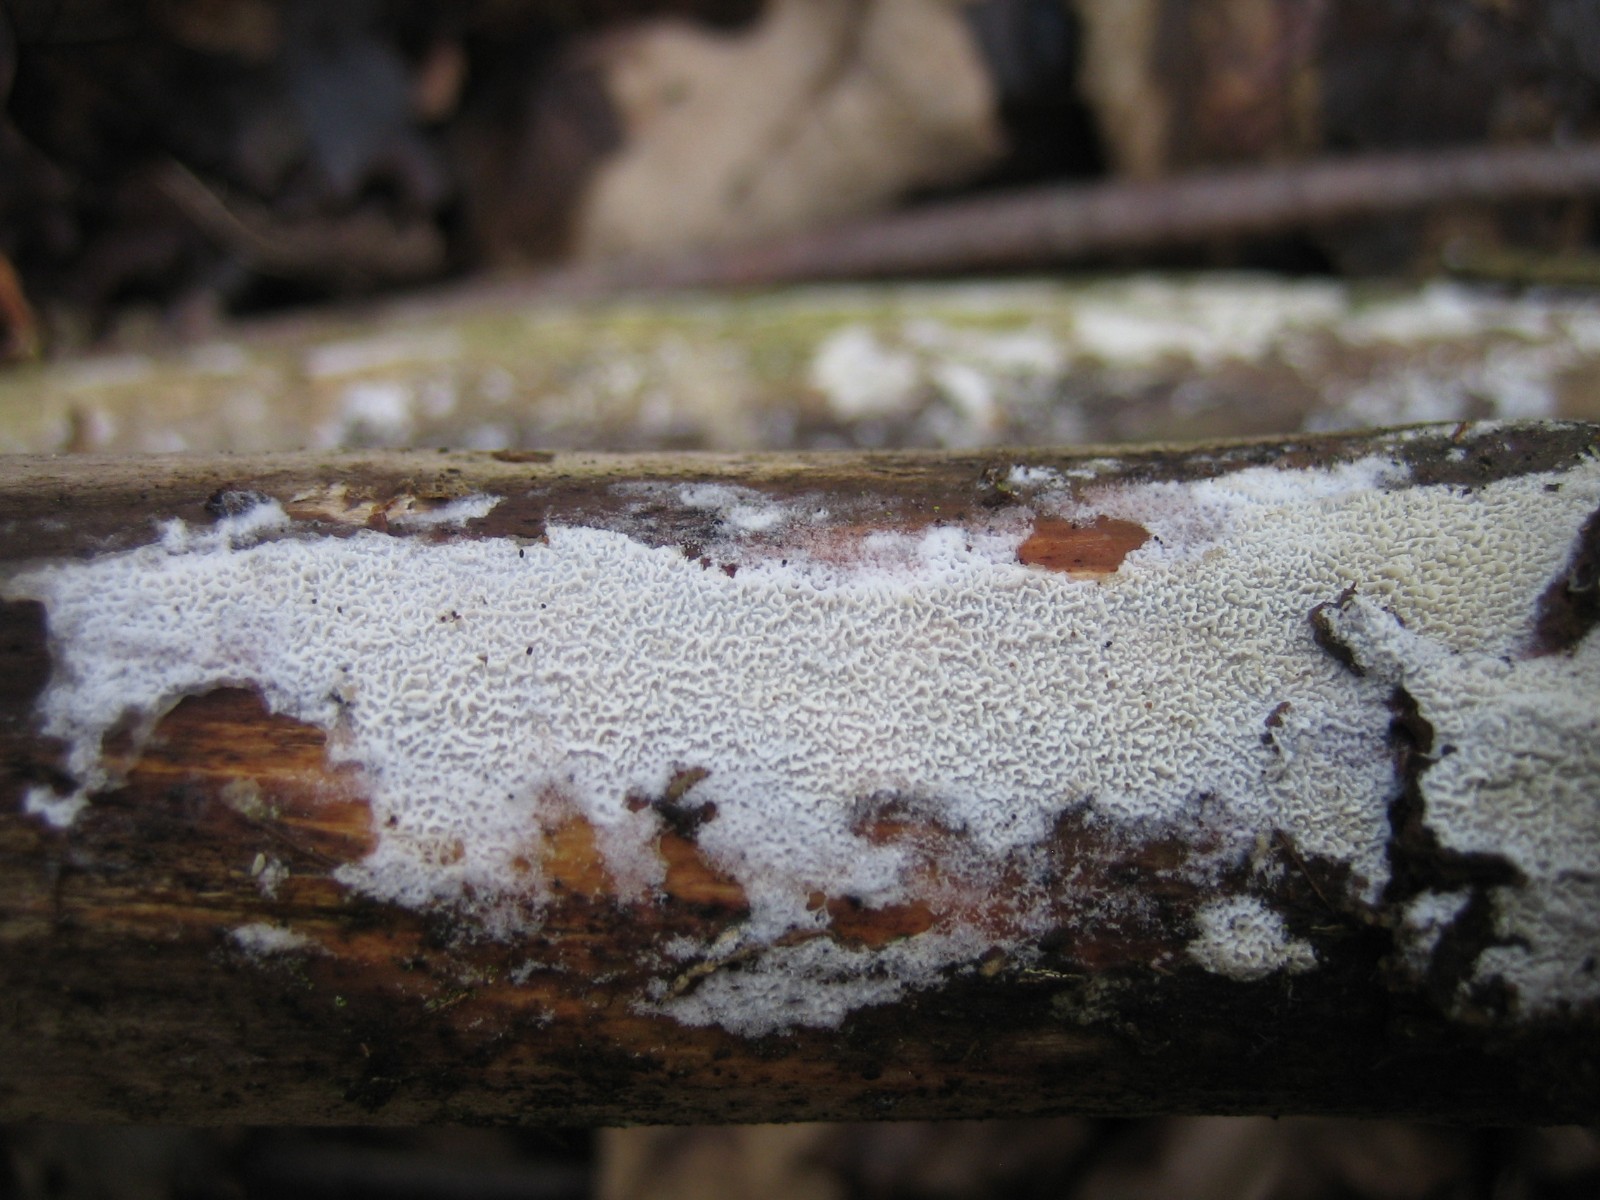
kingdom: Fungi
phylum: Basidiomycota
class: Agaricomycetes
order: Corticiales
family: Corticiaceae
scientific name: Corticiaceae
